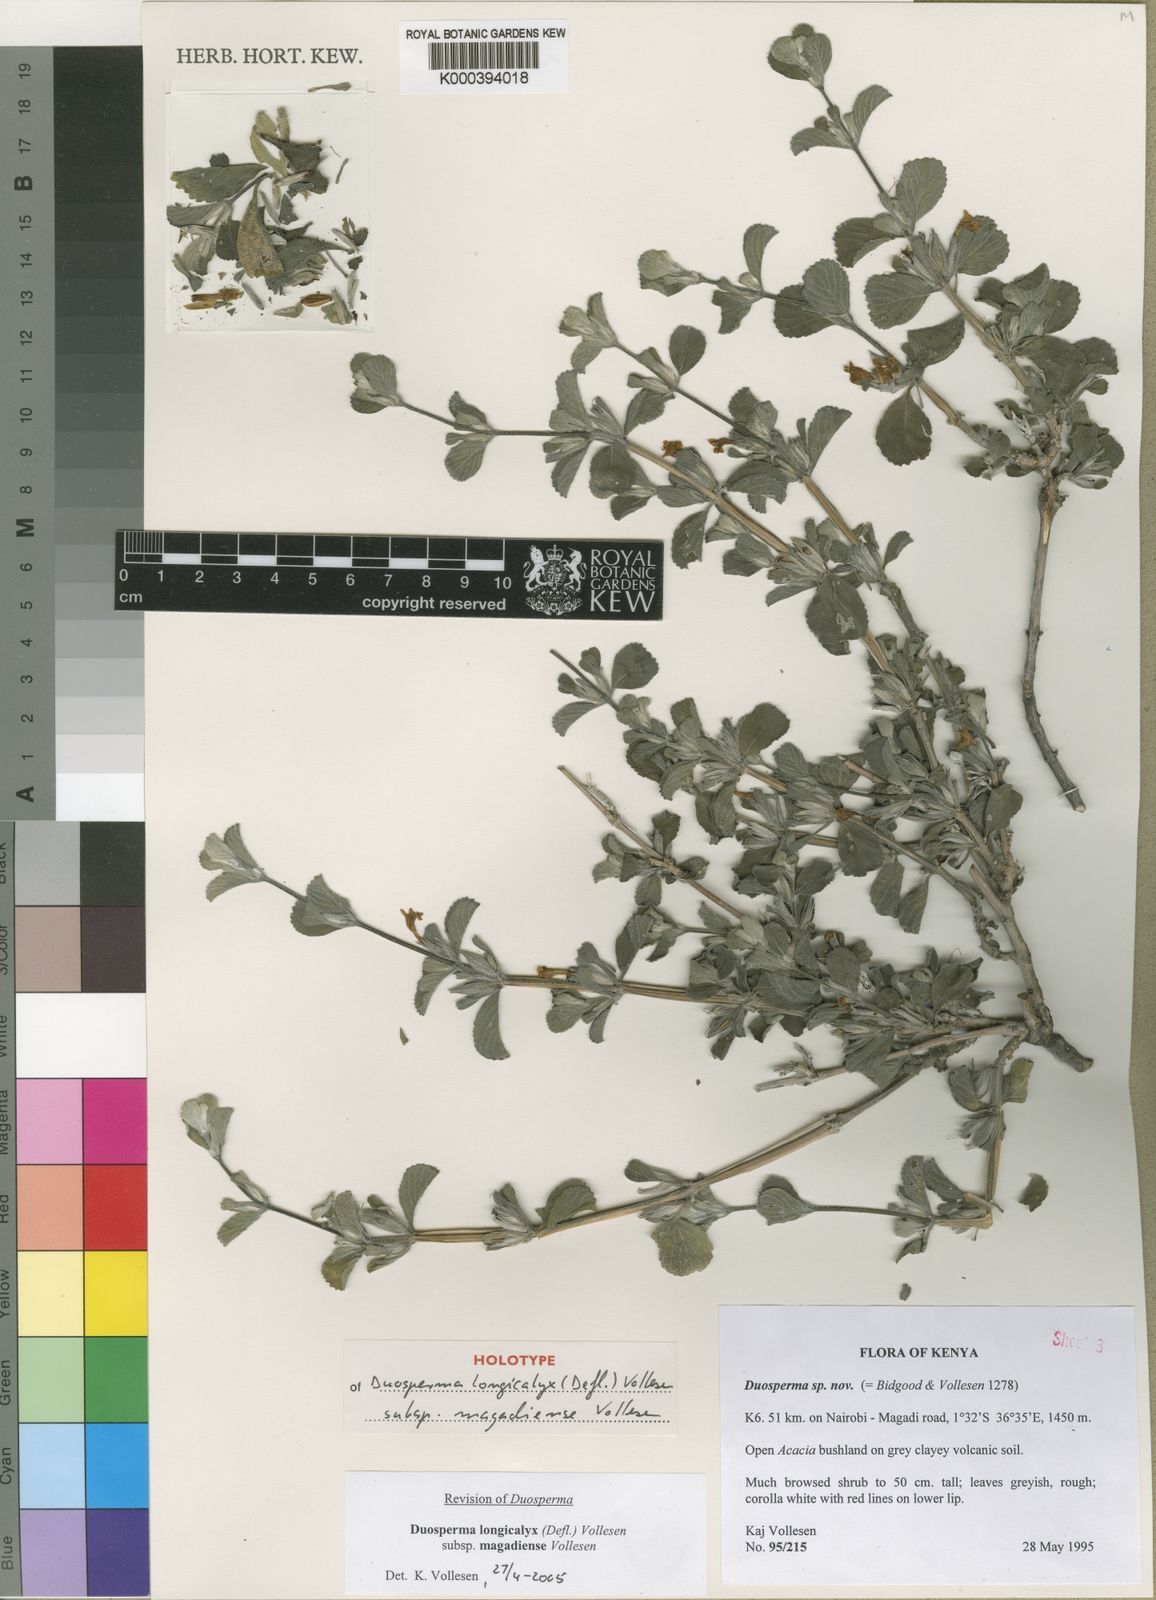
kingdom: Plantae
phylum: Tracheophyta
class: Magnoliopsida
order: Lamiales
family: Acanthaceae
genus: Duosperma
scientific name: Duosperma longicalyx
